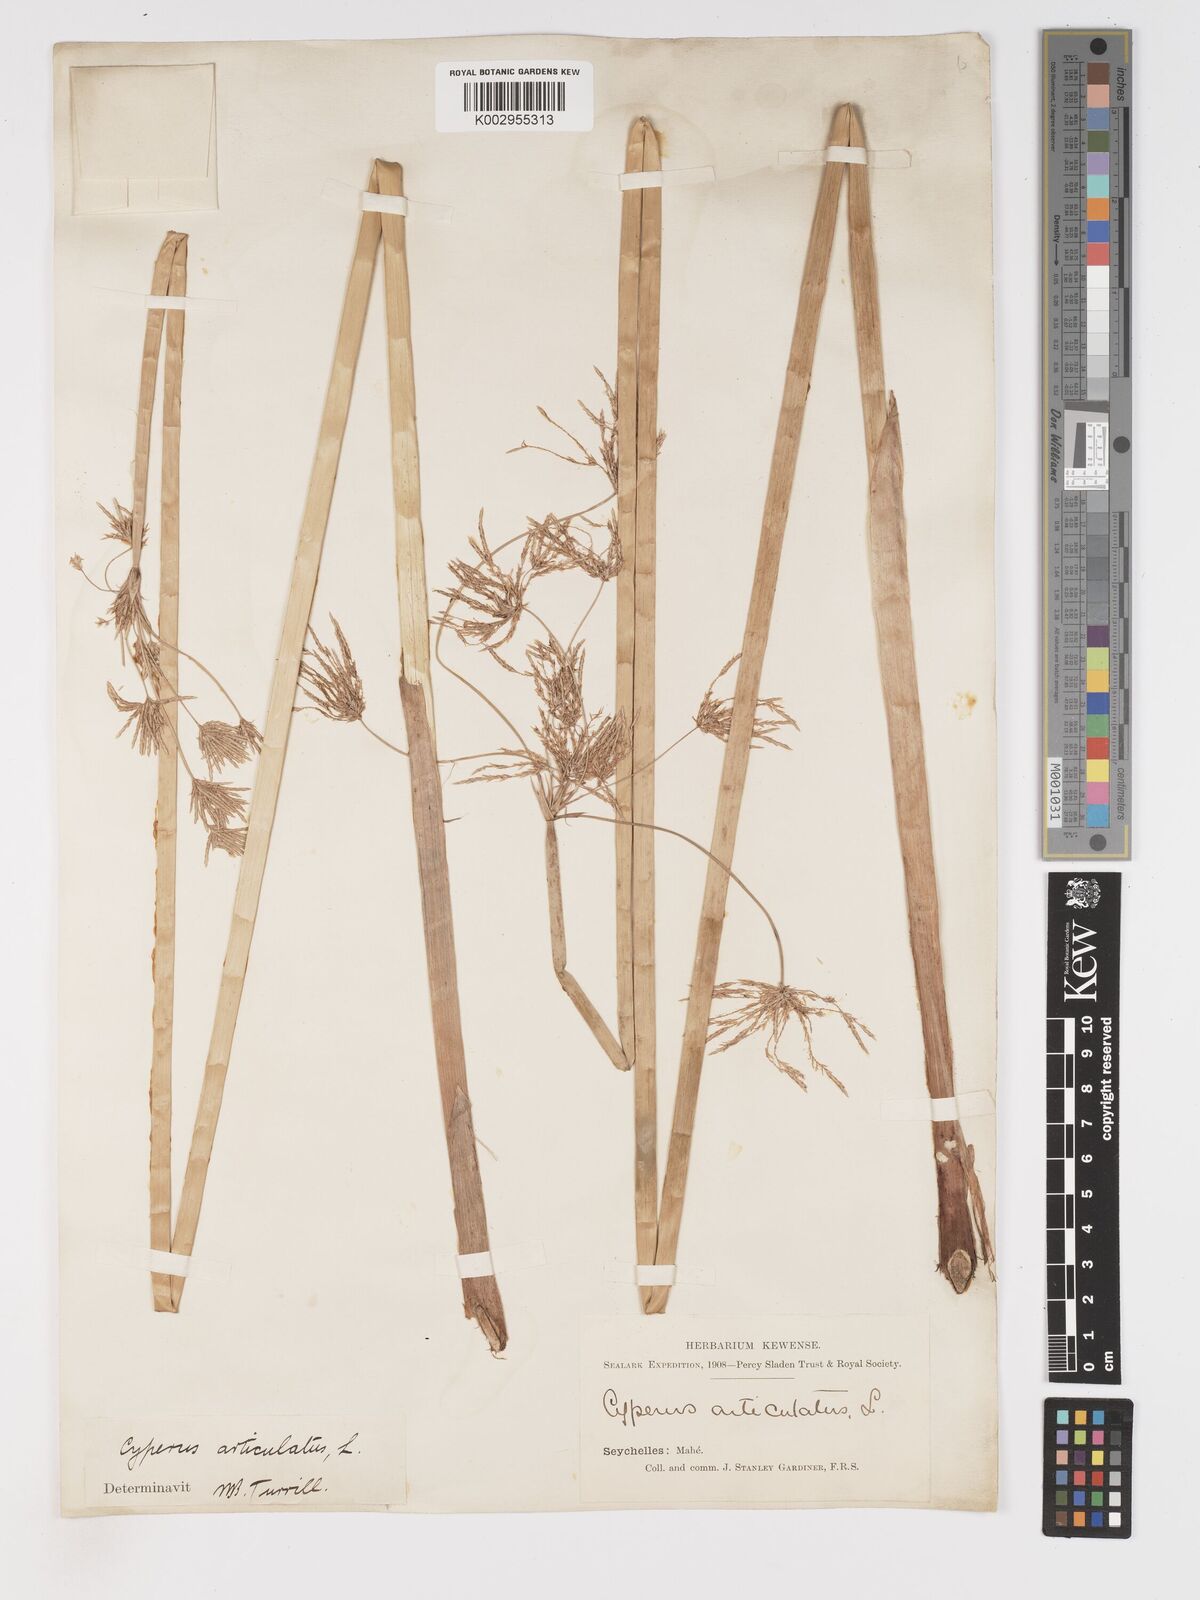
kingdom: Plantae
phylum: Tracheophyta
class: Liliopsida
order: Poales
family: Cyperaceae
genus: Cyperus
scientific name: Cyperus articulatus
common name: Jointed flatsedge
